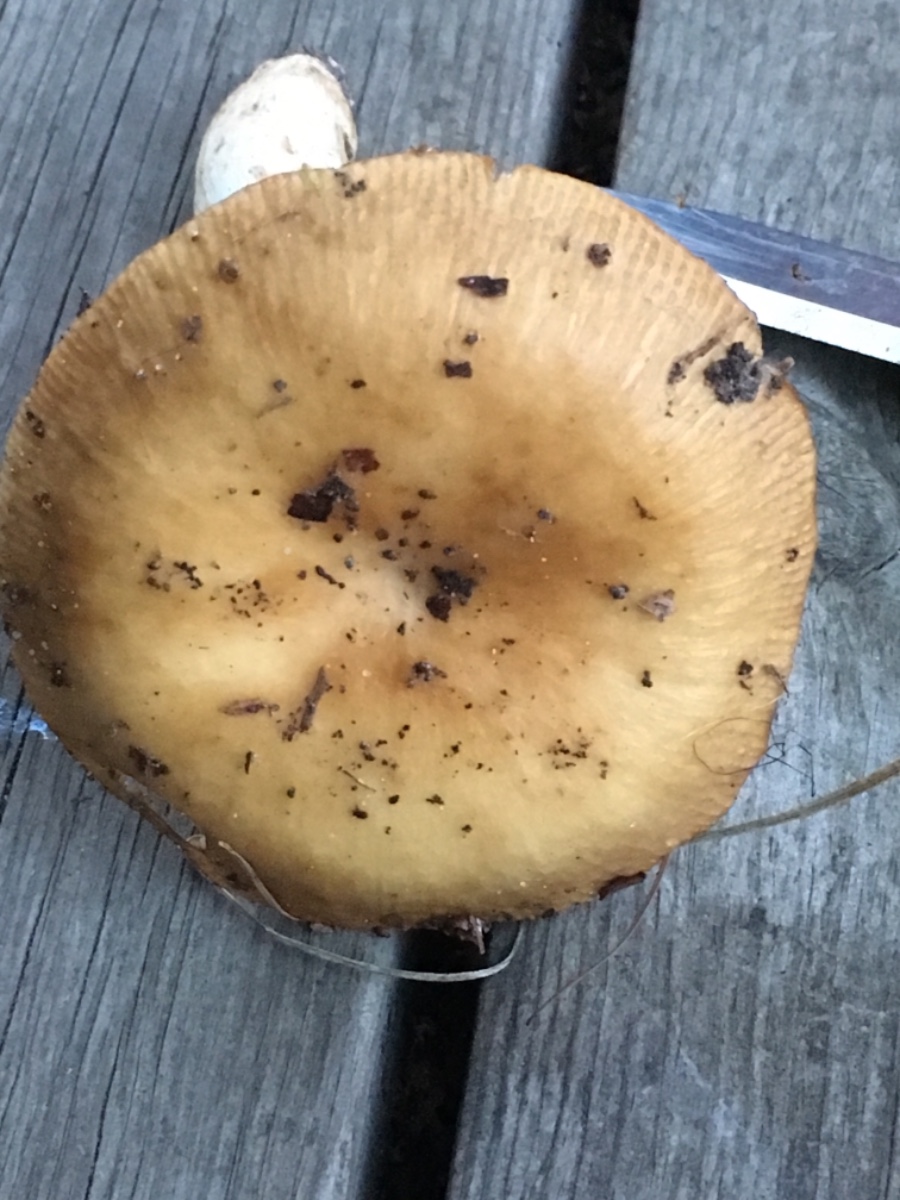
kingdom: Fungi
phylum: Basidiomycota
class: Agaricomycetes
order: Russulales
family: Russulaceae
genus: Russula
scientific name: Russula grata
